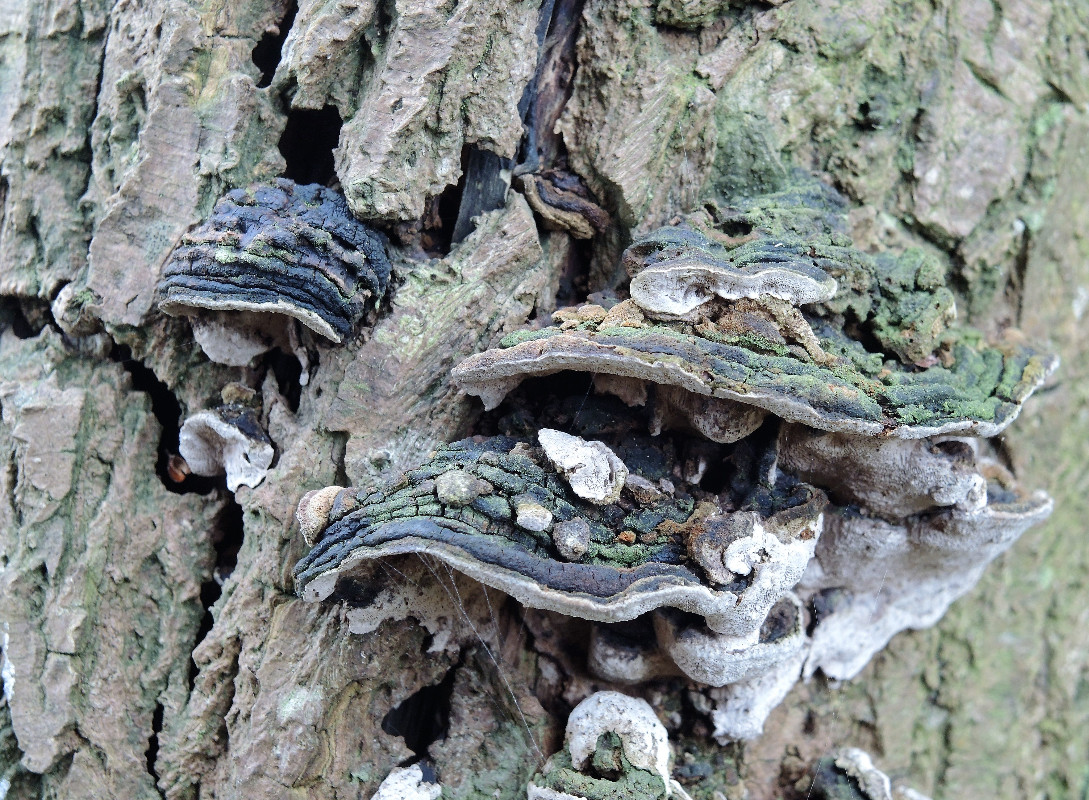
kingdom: Fungi
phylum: Basidiomycota
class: Agaricomycetes
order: Hymenochaetales
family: Hymenochaetaceae
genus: Xanthoporia
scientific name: Xanthoporia radiata
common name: elle-spejlporesvamp
